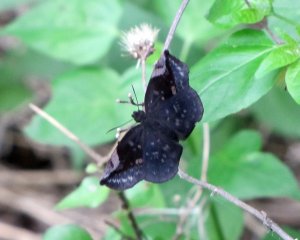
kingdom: Animalia
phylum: Arthropoda
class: Insecta
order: Lepidoptera
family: Hesperiidae
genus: Achlyodes
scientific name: Achlyodes thraso
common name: Sickle-winged Skipper
